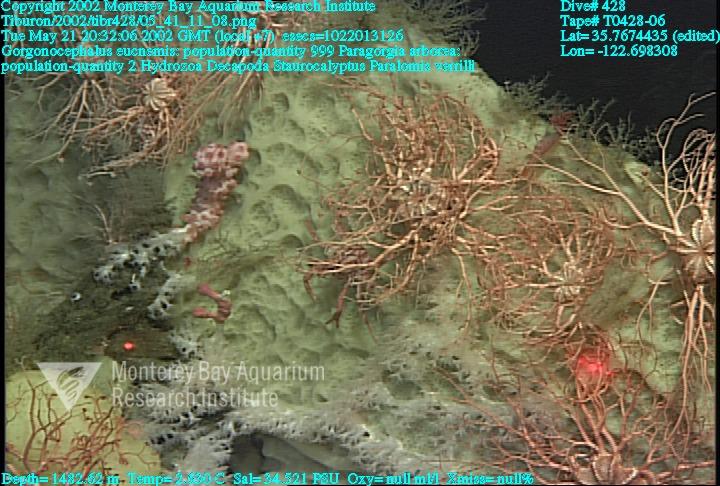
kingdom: Animalia
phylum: Porifera
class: Hexactinellida
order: Lyssacinosida
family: Rossellidae
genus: Staurocalyptus
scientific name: Staurocalyptus
